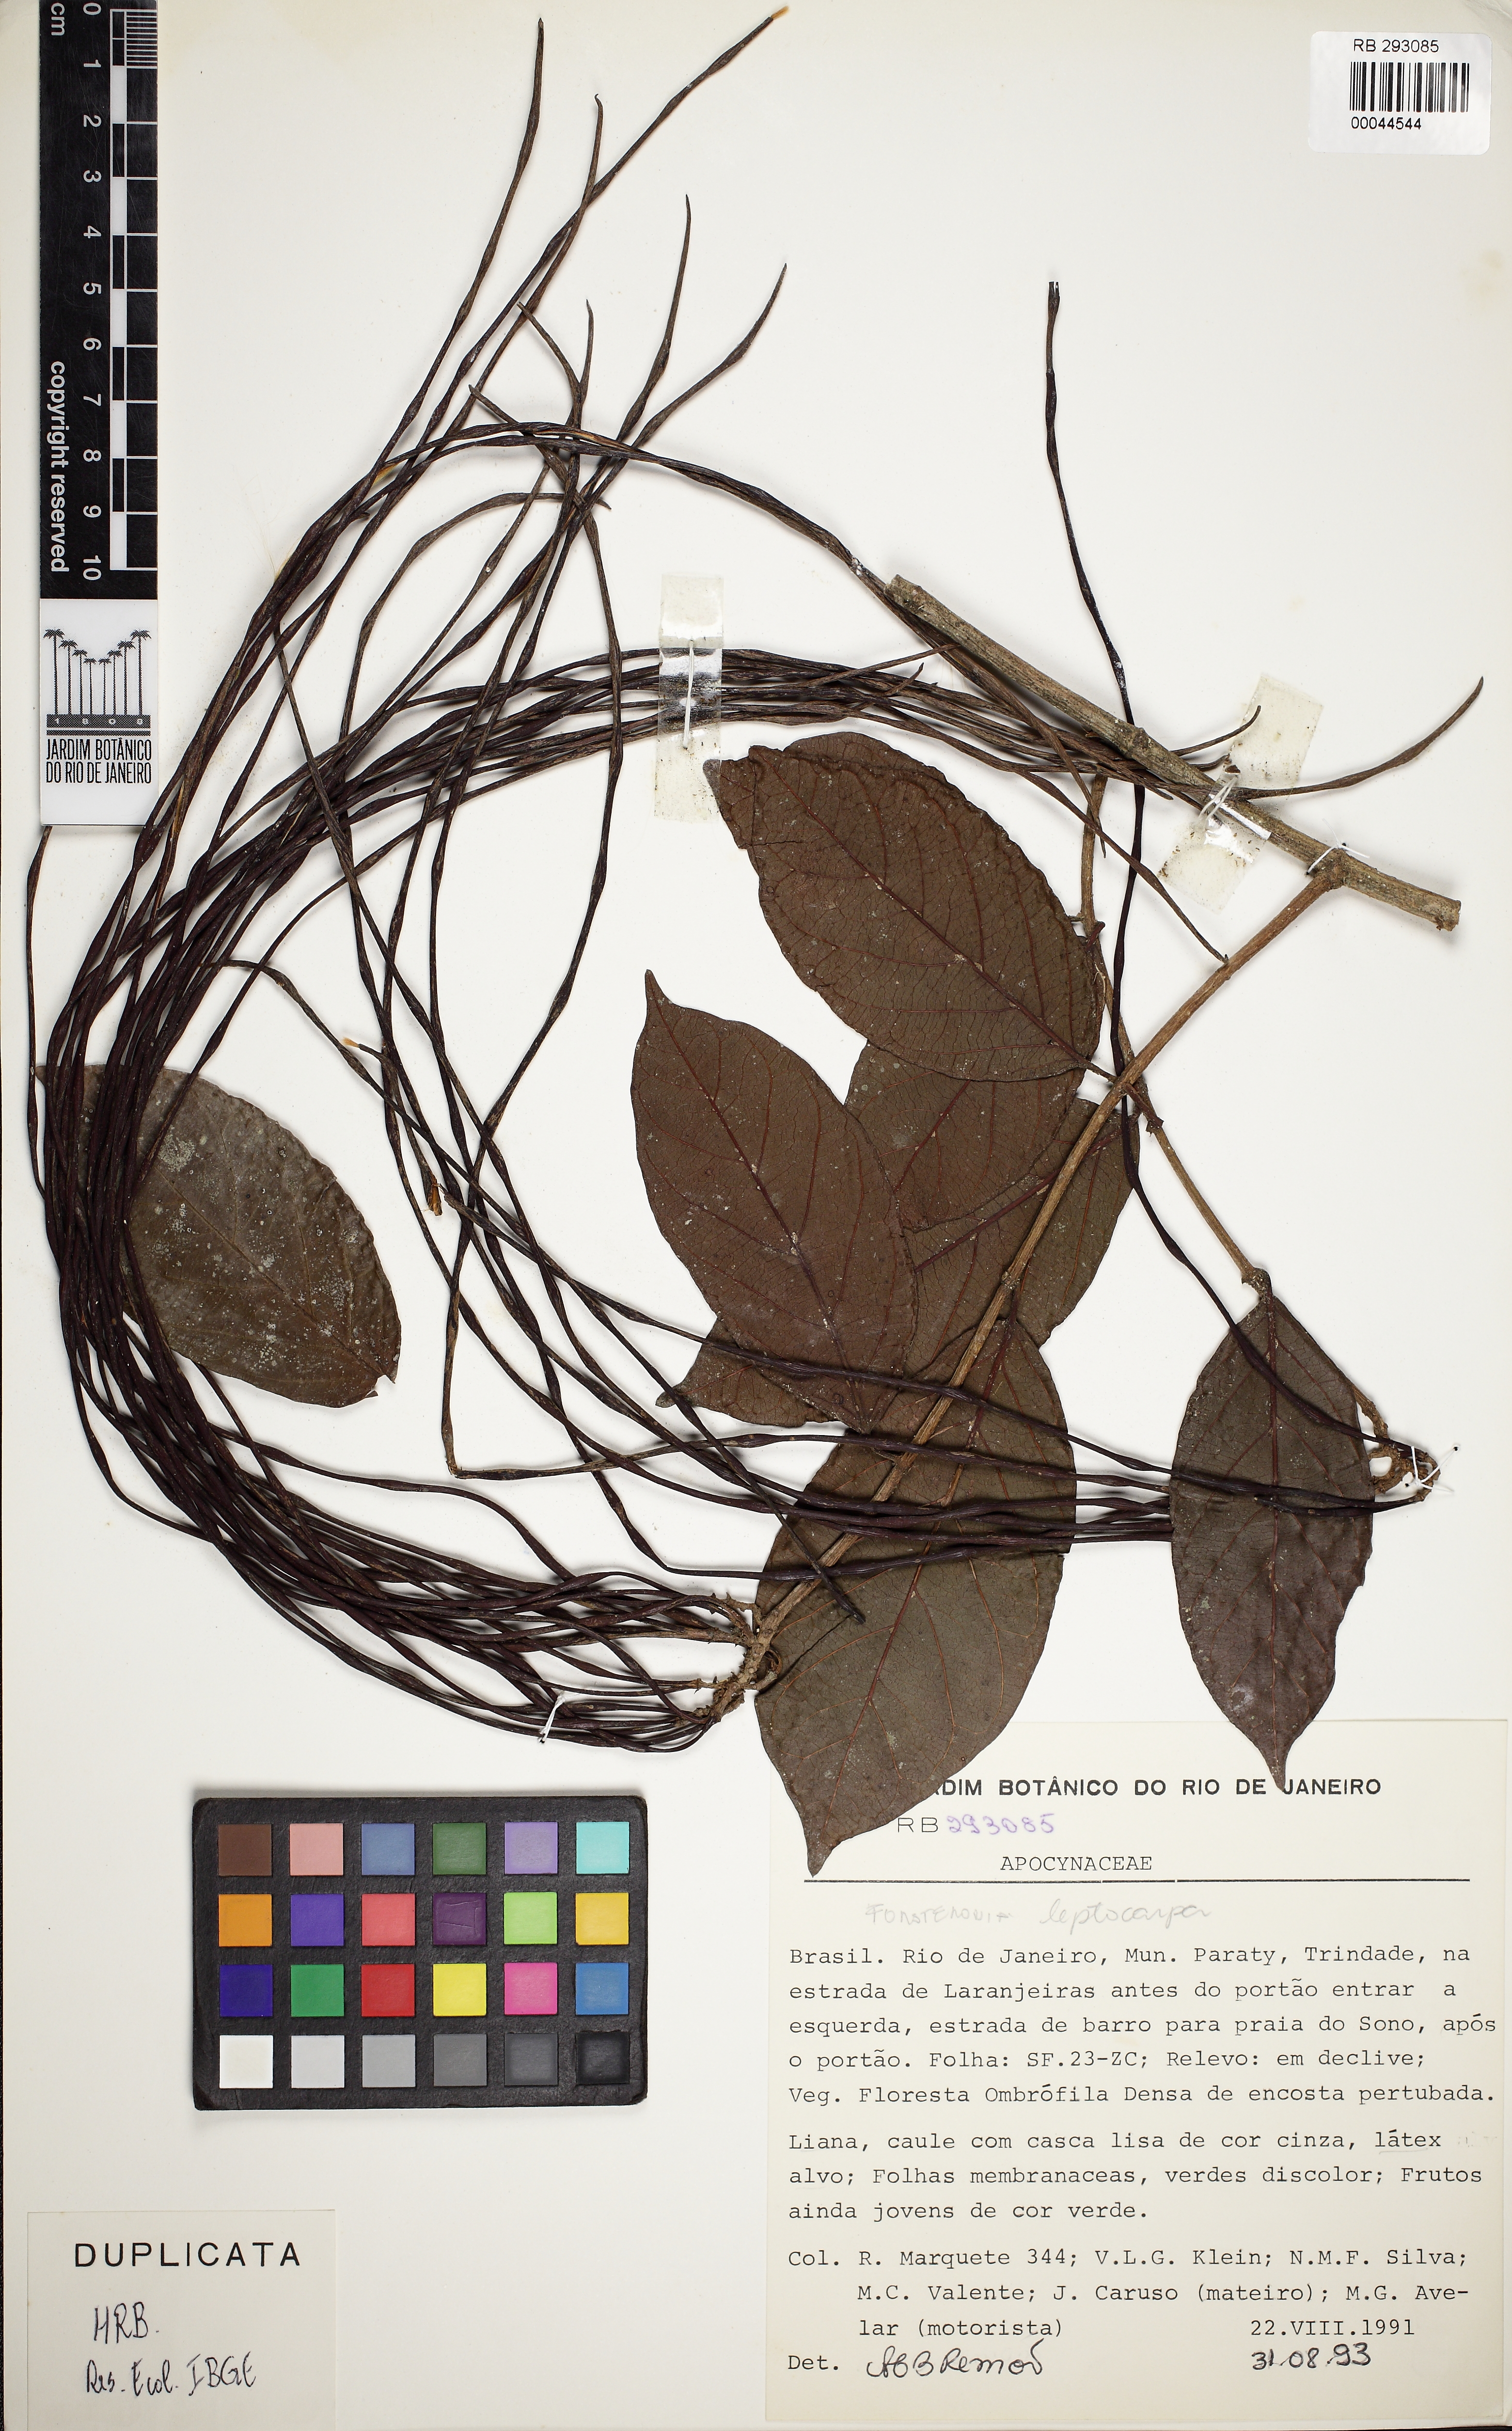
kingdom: Plantae
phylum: Tracheophyta
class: Magnoliopsida
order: Gentianales
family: Apocynaceae
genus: Forsteronia
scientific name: Forsteronia leptocarpa
